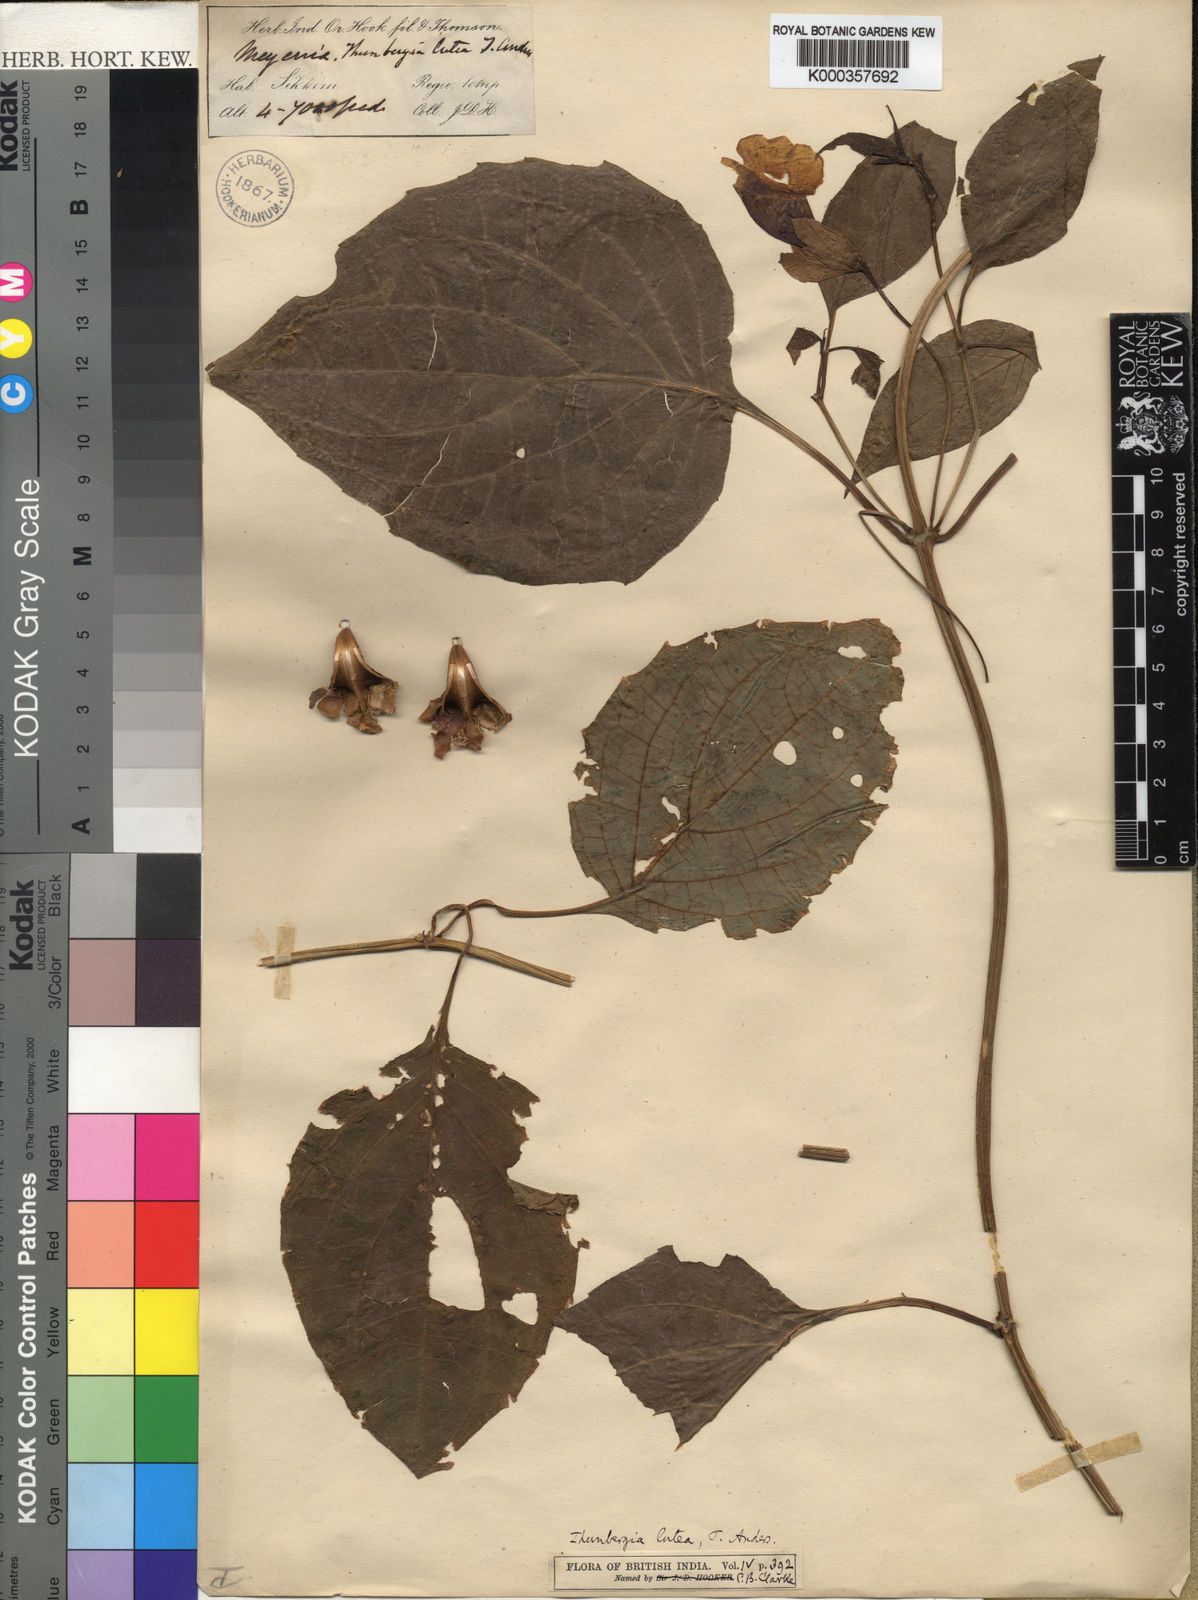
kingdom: Plantae
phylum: Tracheophyta
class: Magnoliopsida
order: Lamiales
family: Acanthaceae
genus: Thunbergia
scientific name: Thunbergia lutea
